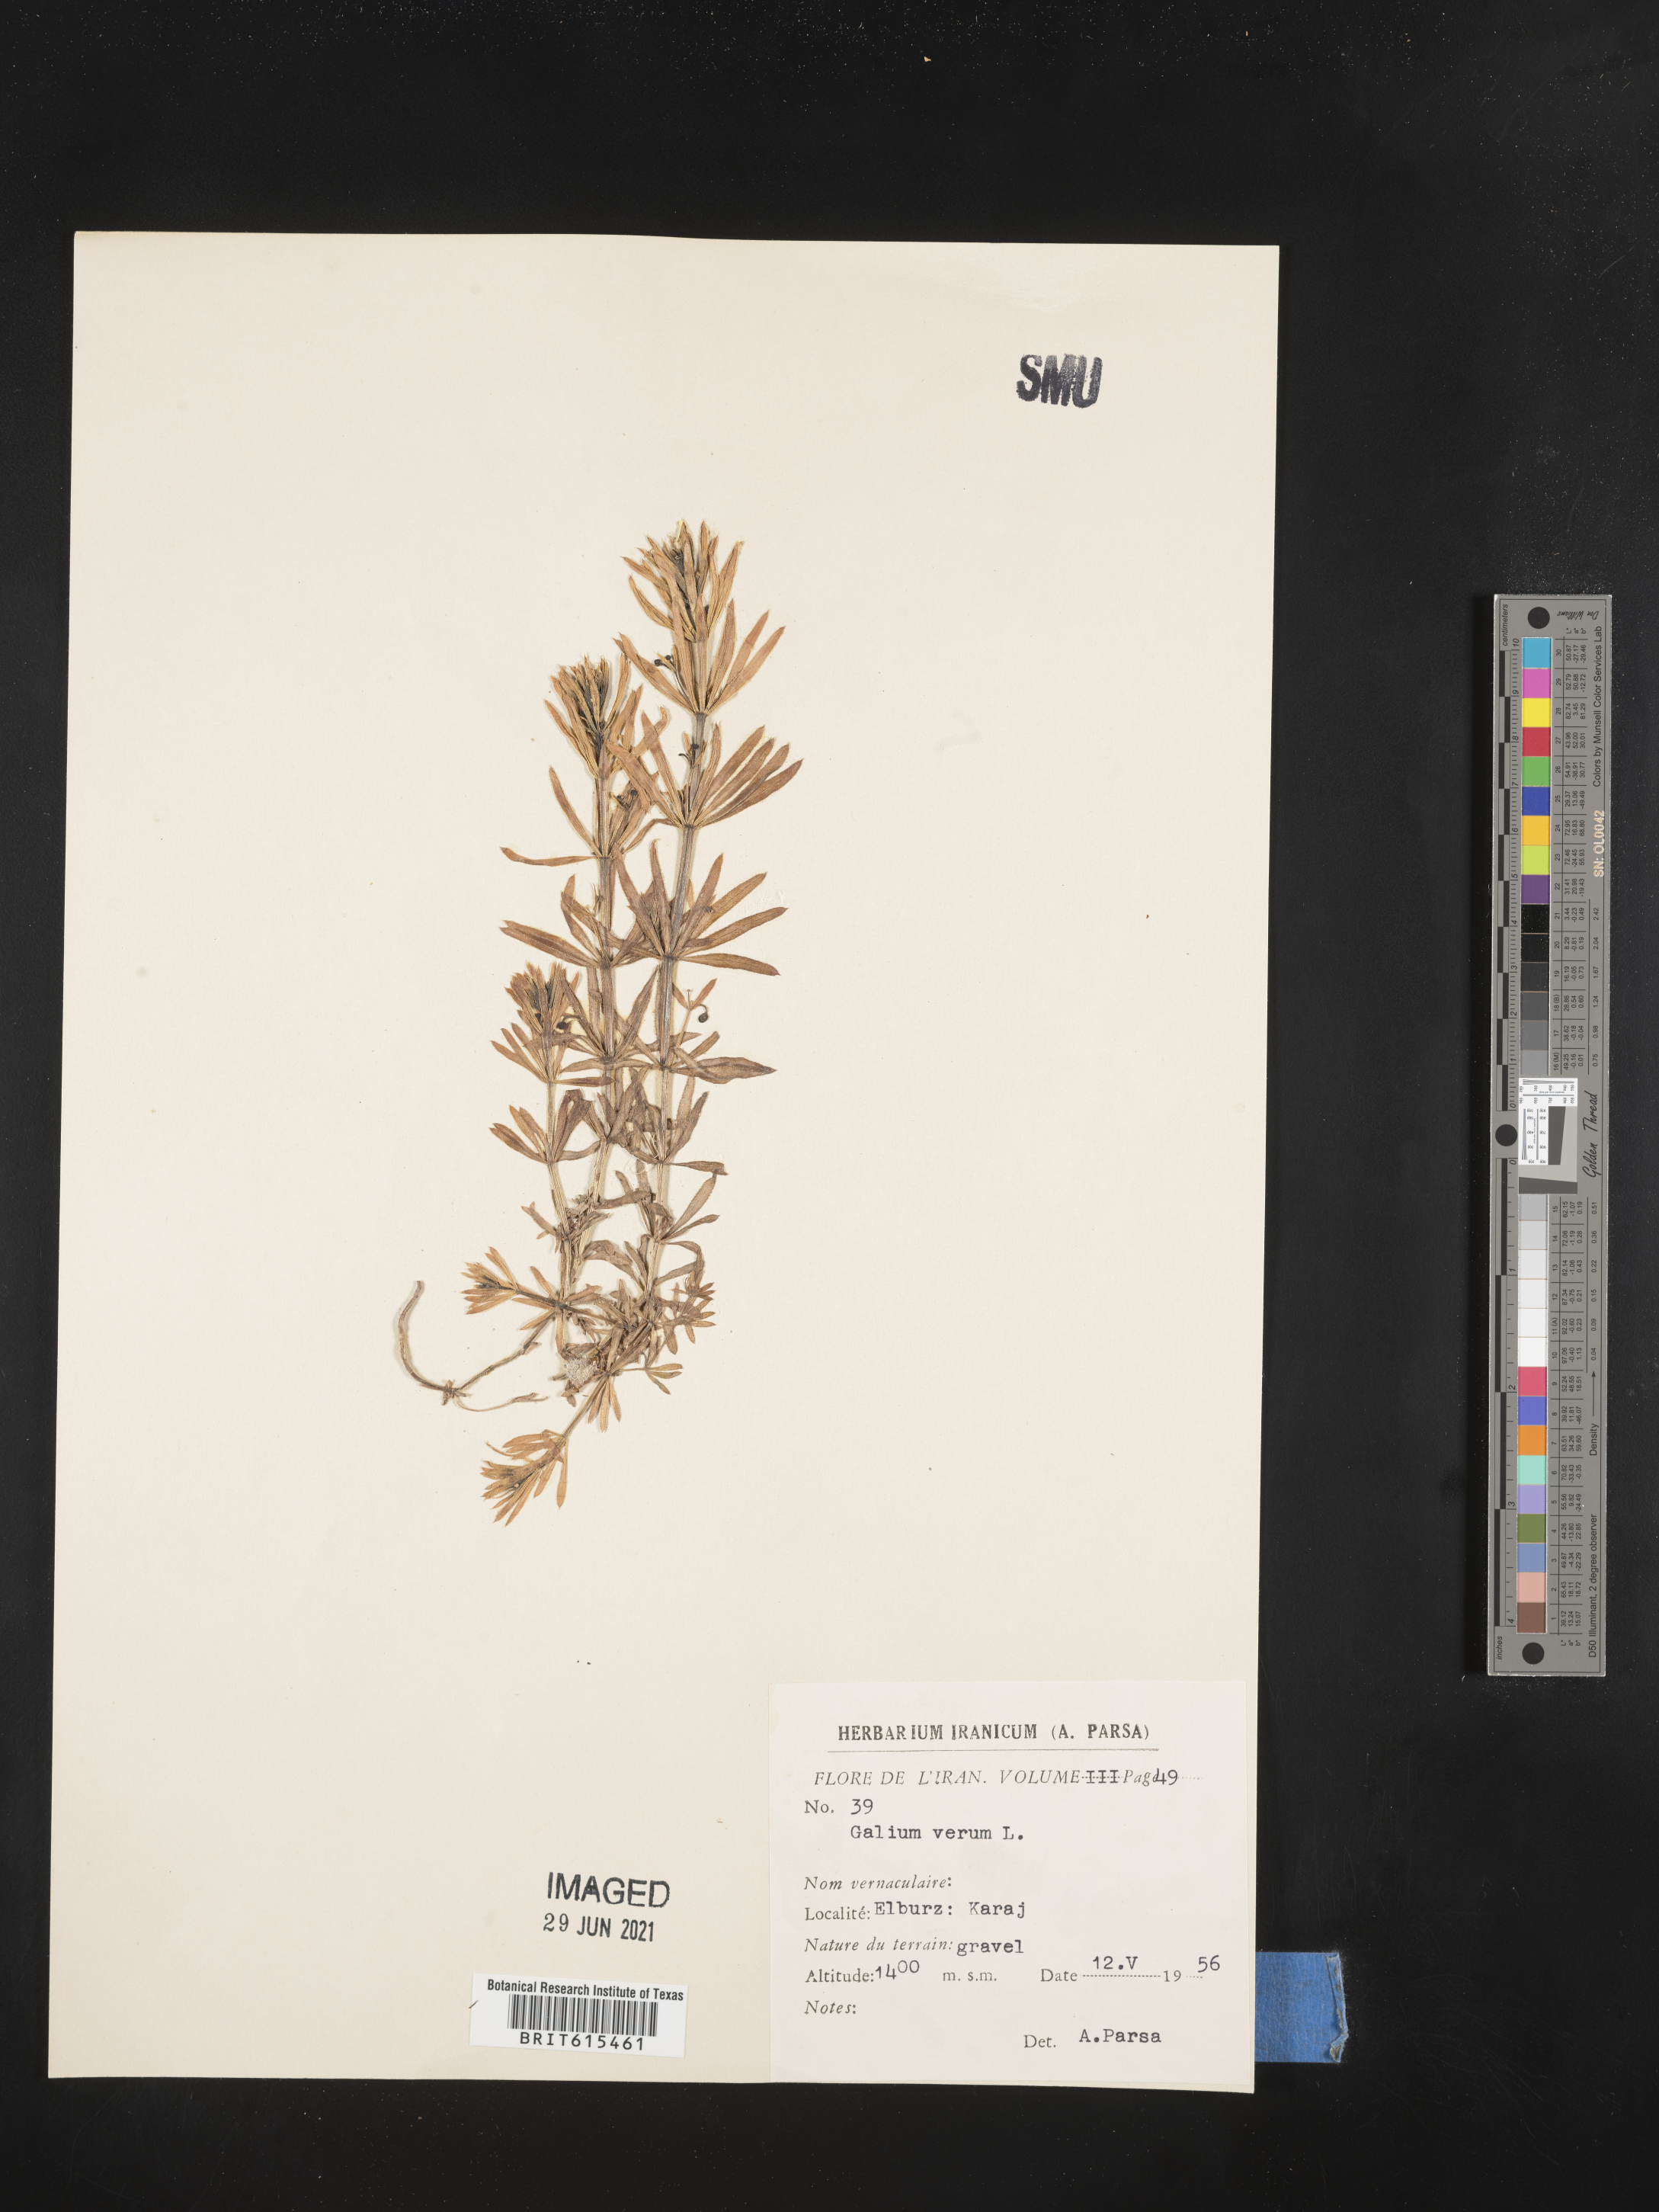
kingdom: Plantae
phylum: Tracheophyta
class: Magnoliopsida
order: Gentianales
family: Rubiaceae
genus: Galium
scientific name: Galium verum
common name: Lady's bedstraw
